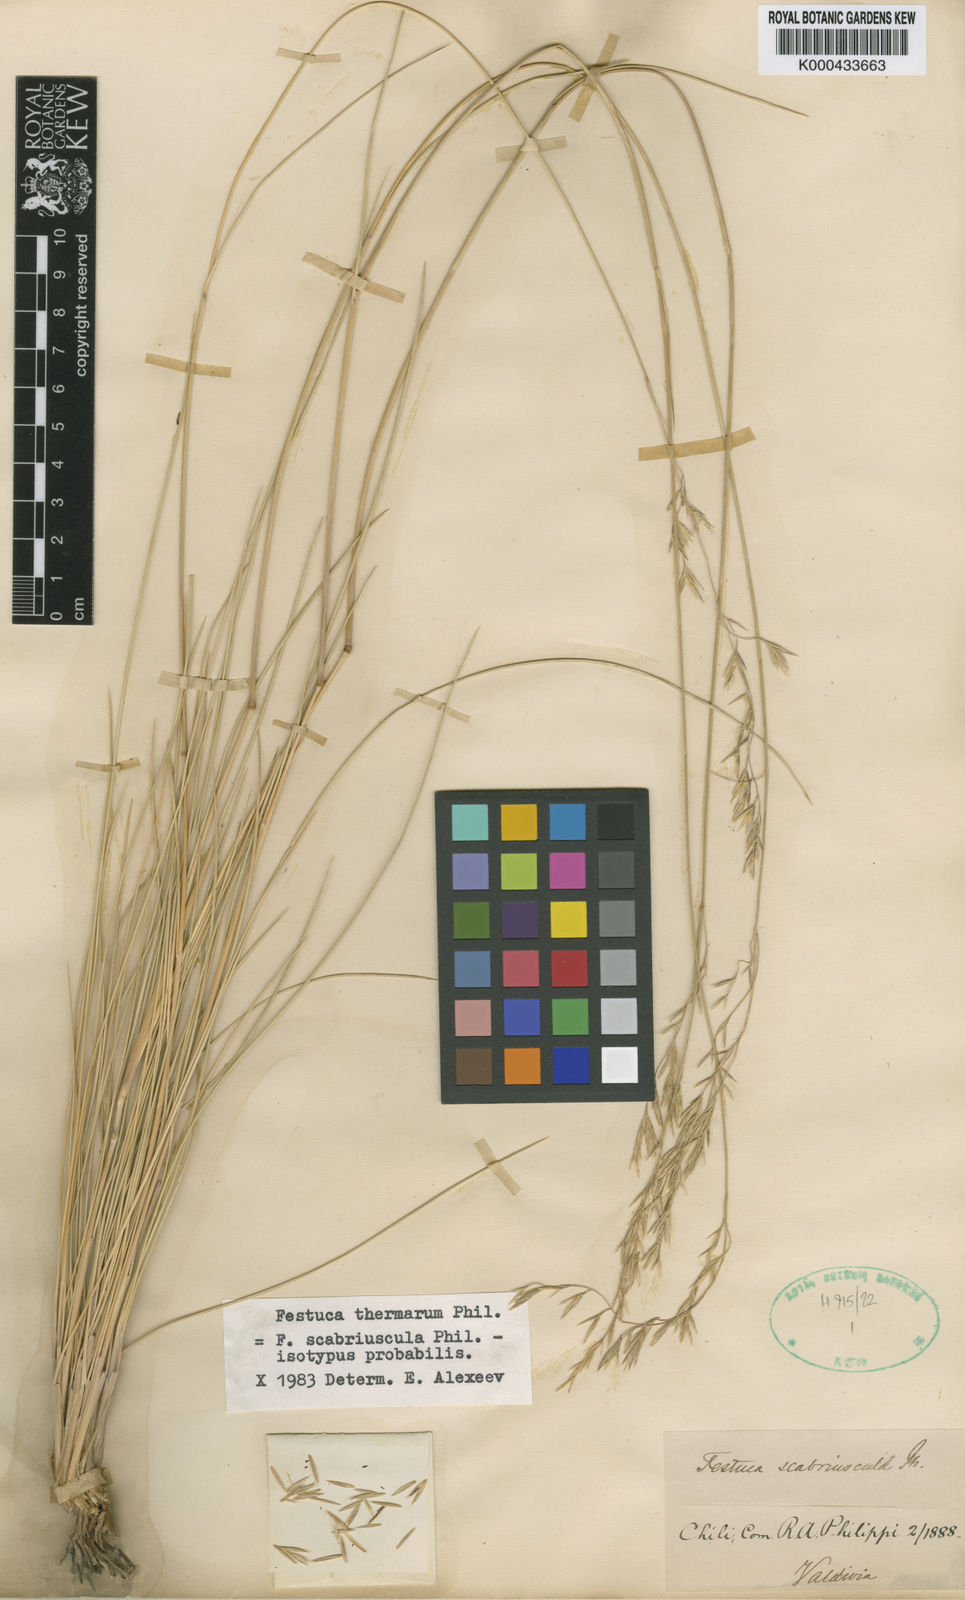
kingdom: Plantae
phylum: Tracheophyta
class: Liliopsida
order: Poales
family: Poaceae
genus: Festuca
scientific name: Festuca acanthophylla
